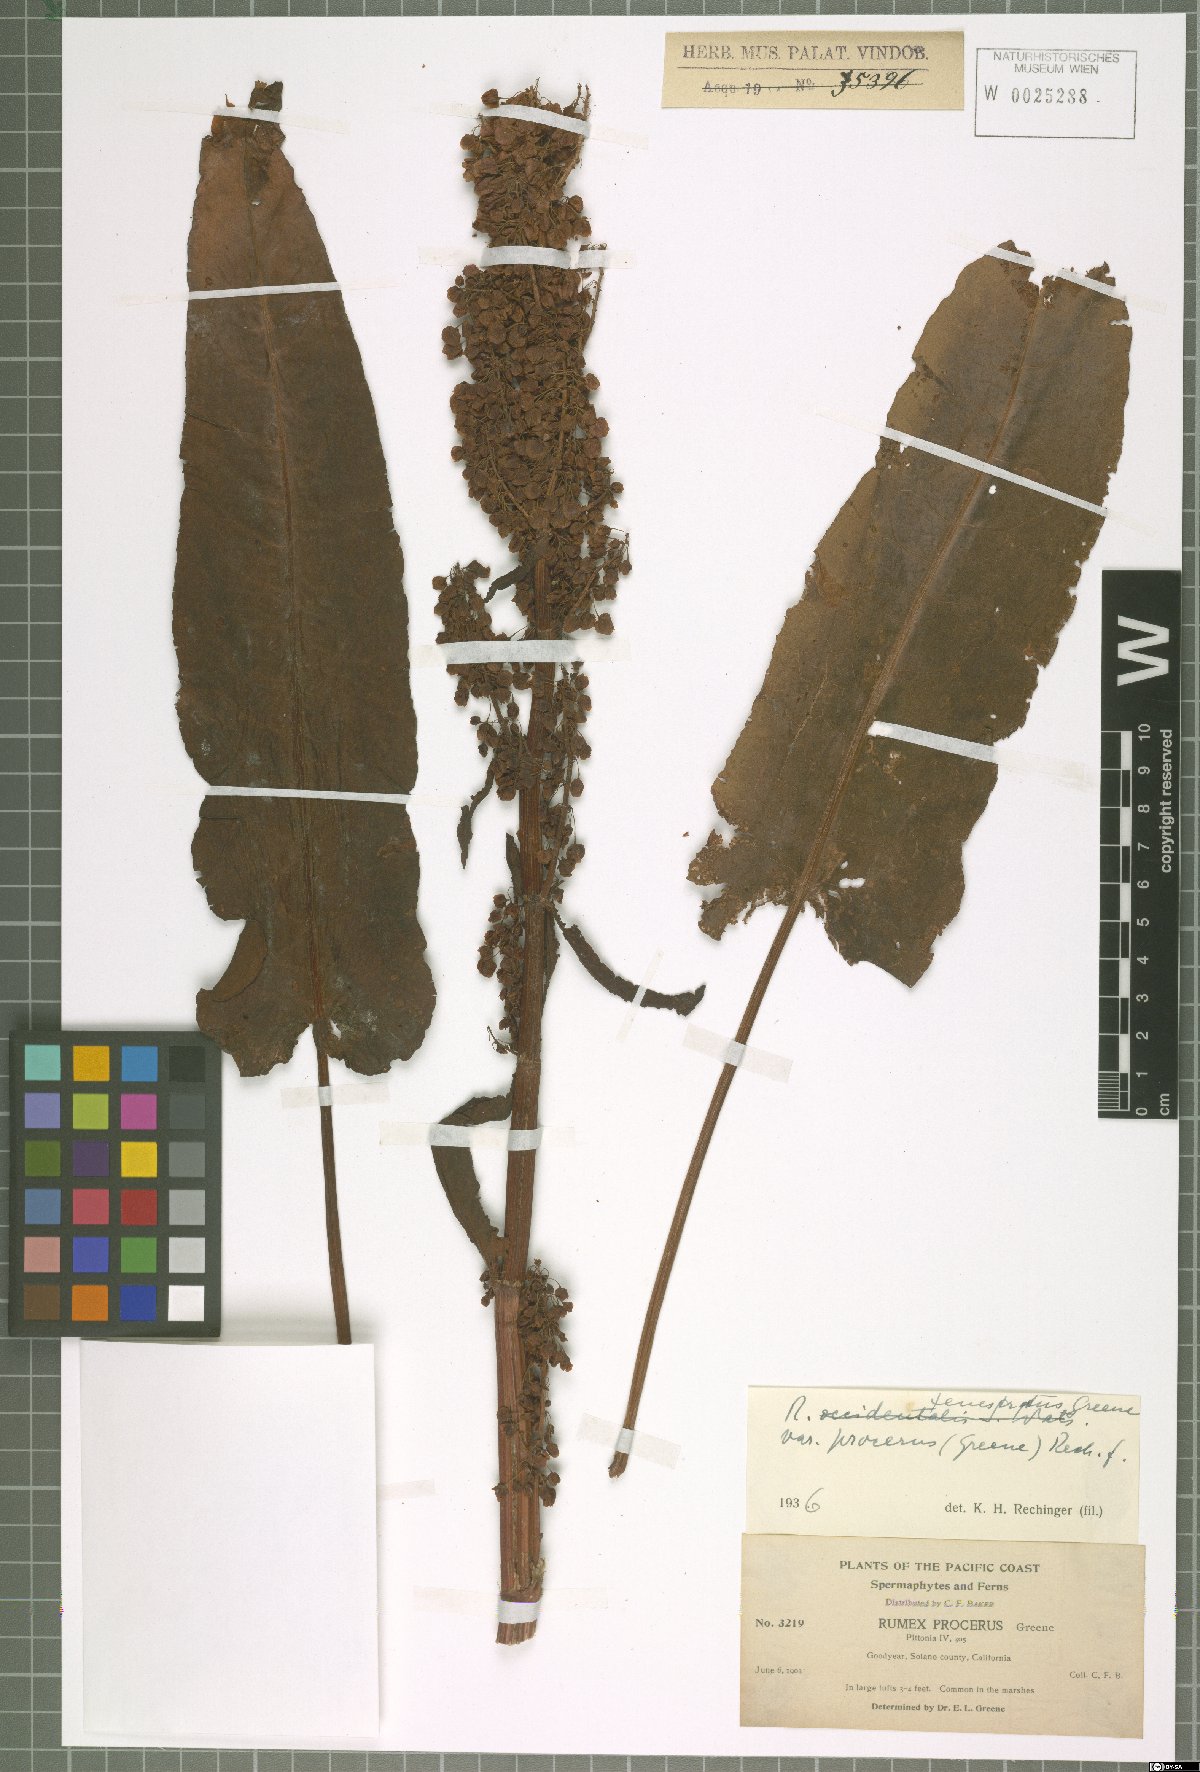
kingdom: Plantae
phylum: Tracheophyta
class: Magnoliopsida
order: Caryophyllales
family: Polygonaceae
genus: Rumex
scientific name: Rumex occidentalis
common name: Western dock
